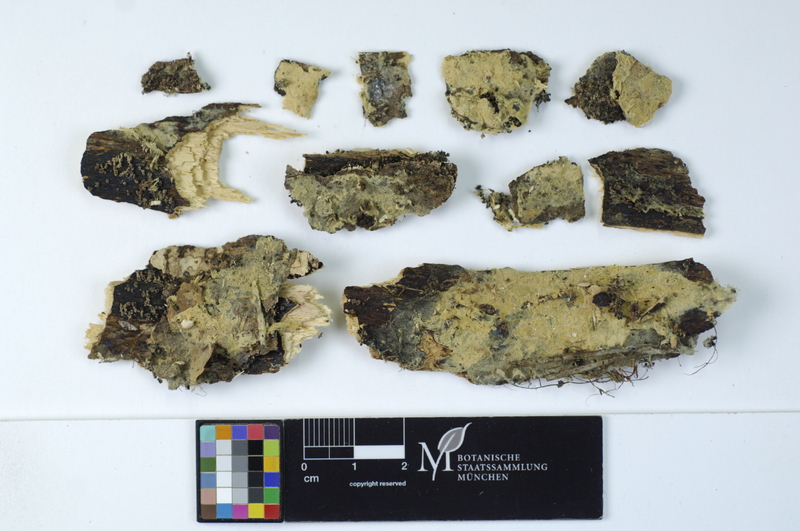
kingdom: Fungi
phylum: Basidiomycota
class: Agaricomycetes
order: Atheliales
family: Atheliaceae
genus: Amphinema
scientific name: Amphinema byssoides
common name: Cratered duster
